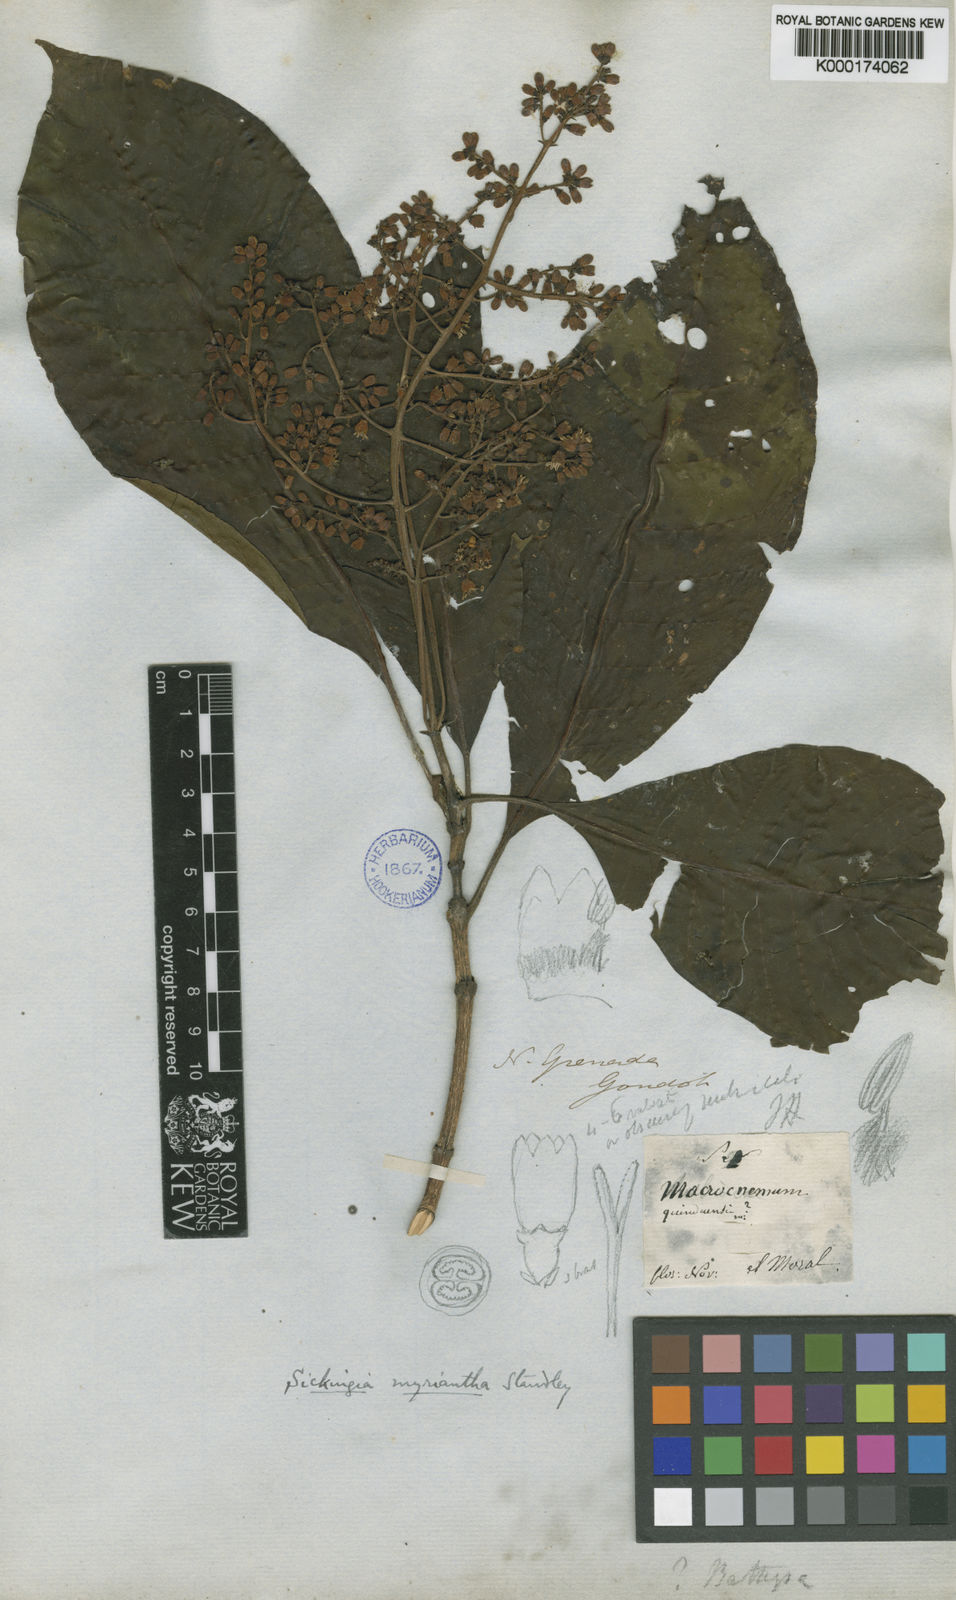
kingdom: Plantae
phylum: Tracheophyta
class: Magnoliopsida
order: Gentianales
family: Rubiaceae
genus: Elaeagia
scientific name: Elaeagia myriantha
